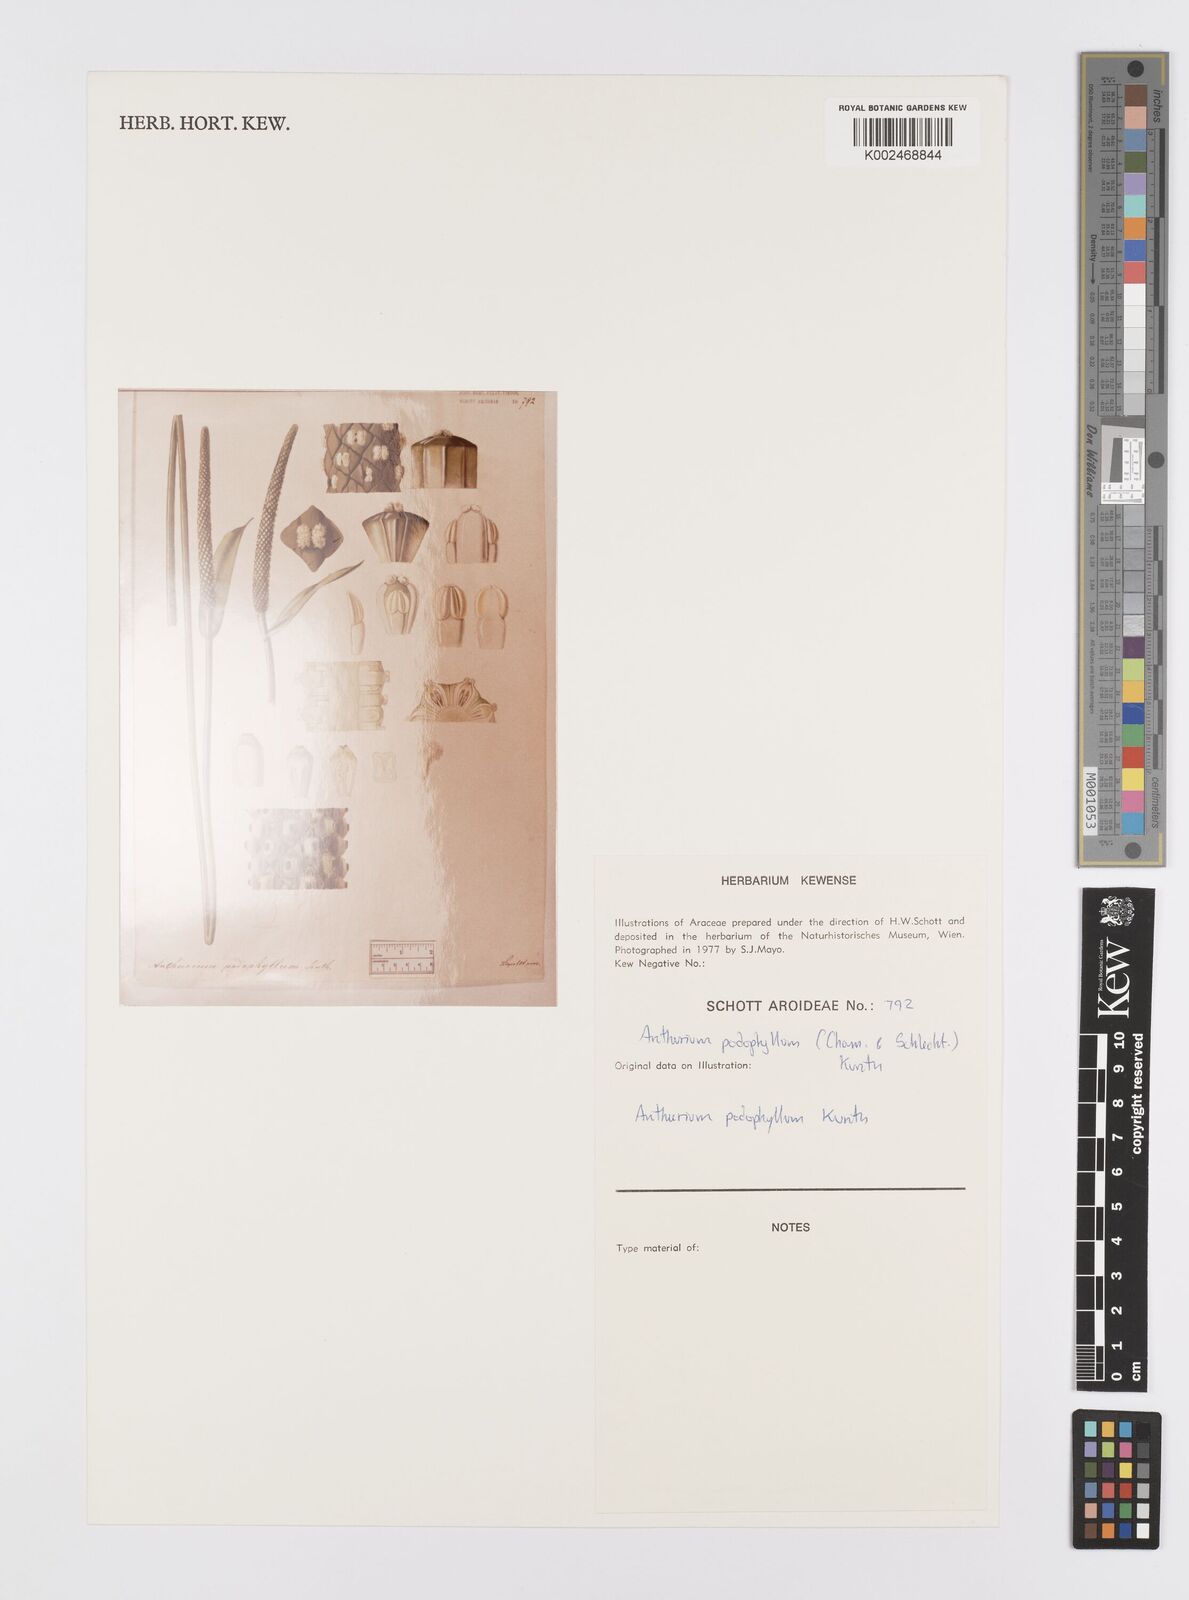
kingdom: Plantae
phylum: Tracheophyta
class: Liliopsida
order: Alismatales
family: Araceae
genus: Anthurium
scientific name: Anthurium podophyllum
